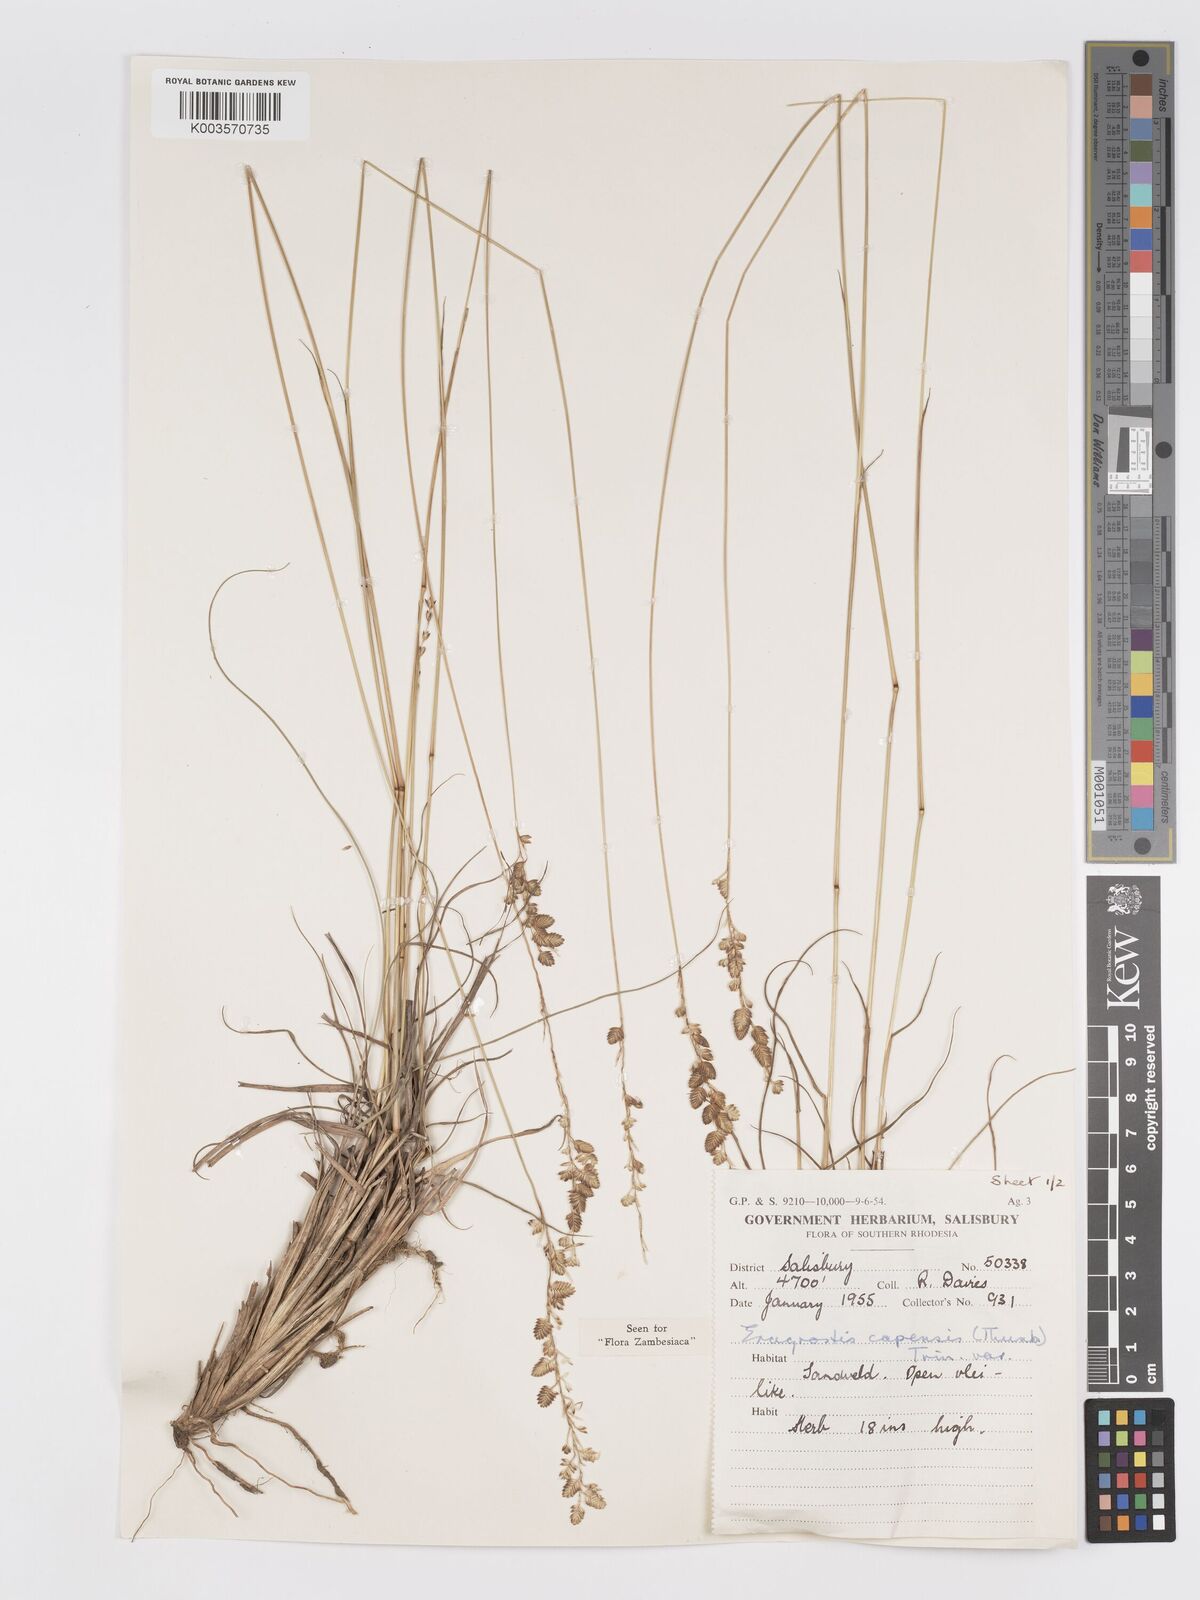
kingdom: Plantae
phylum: Tracheophyta
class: Liliopsida
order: Poales
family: Poaceae
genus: Eragrostis
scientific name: Eragrostis capensis
